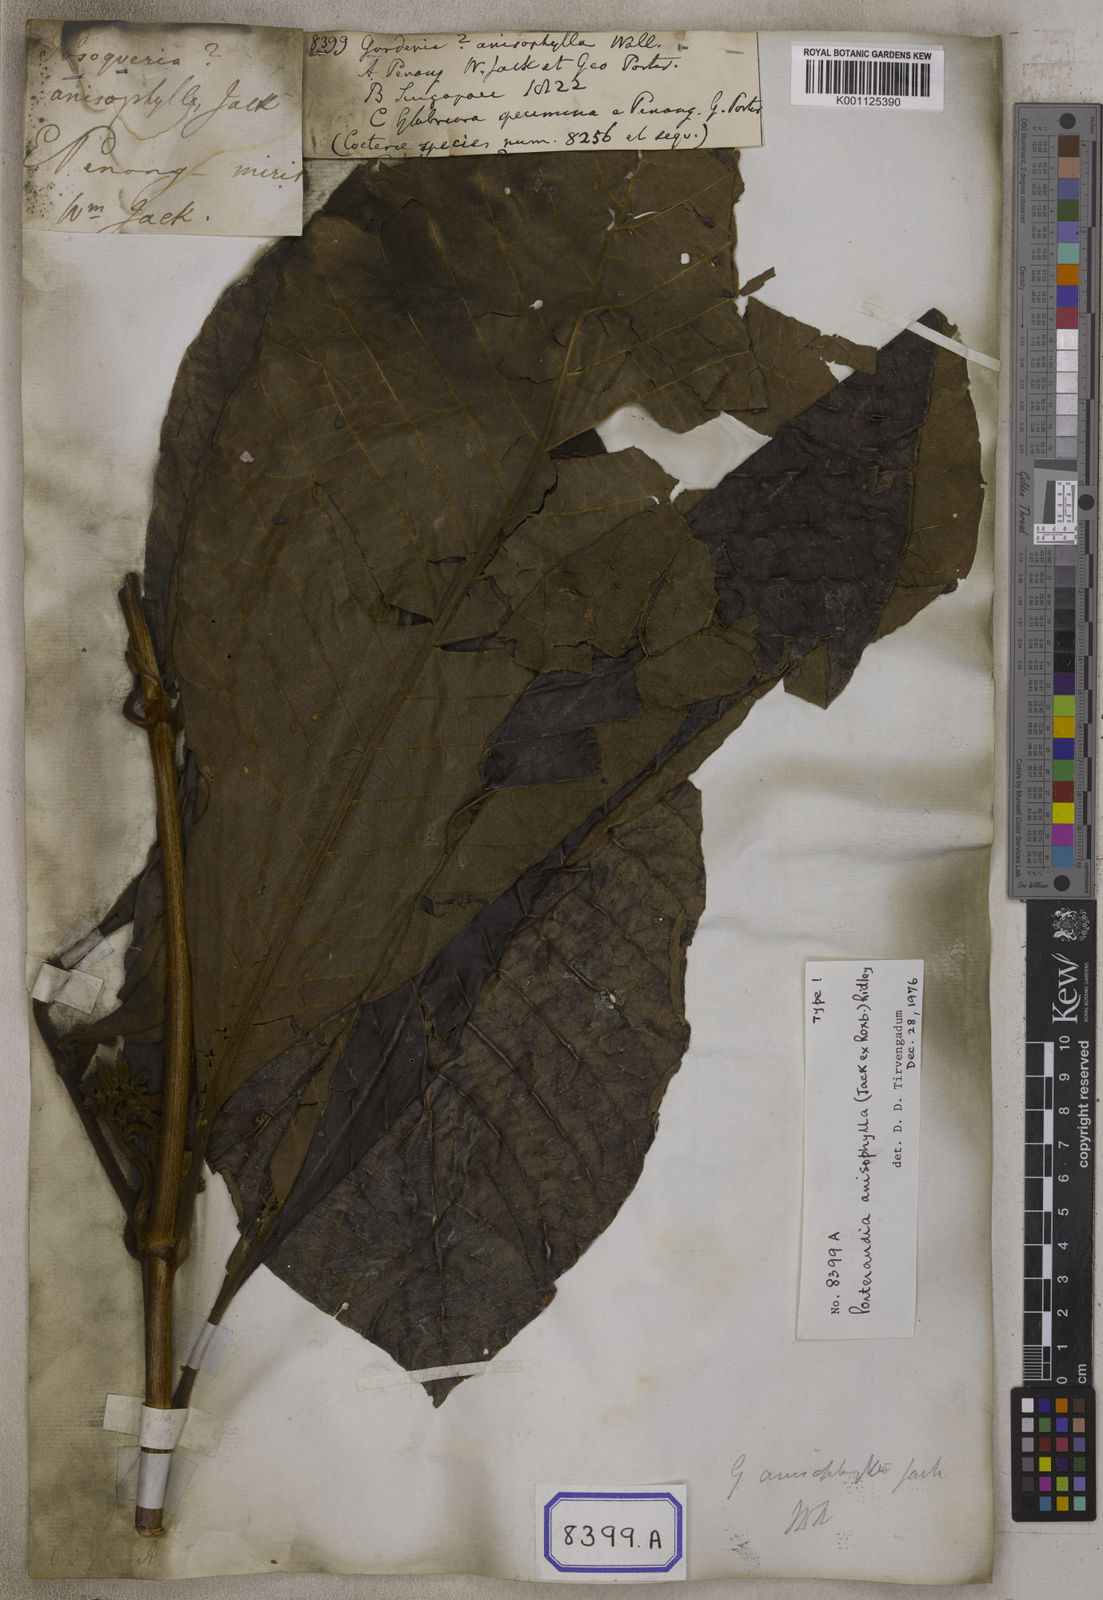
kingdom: Plantae
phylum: Tracheophyta
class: Magnoliopsida
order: Gentianales
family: Rubiaceae
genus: Gardenia
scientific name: Gardenia
